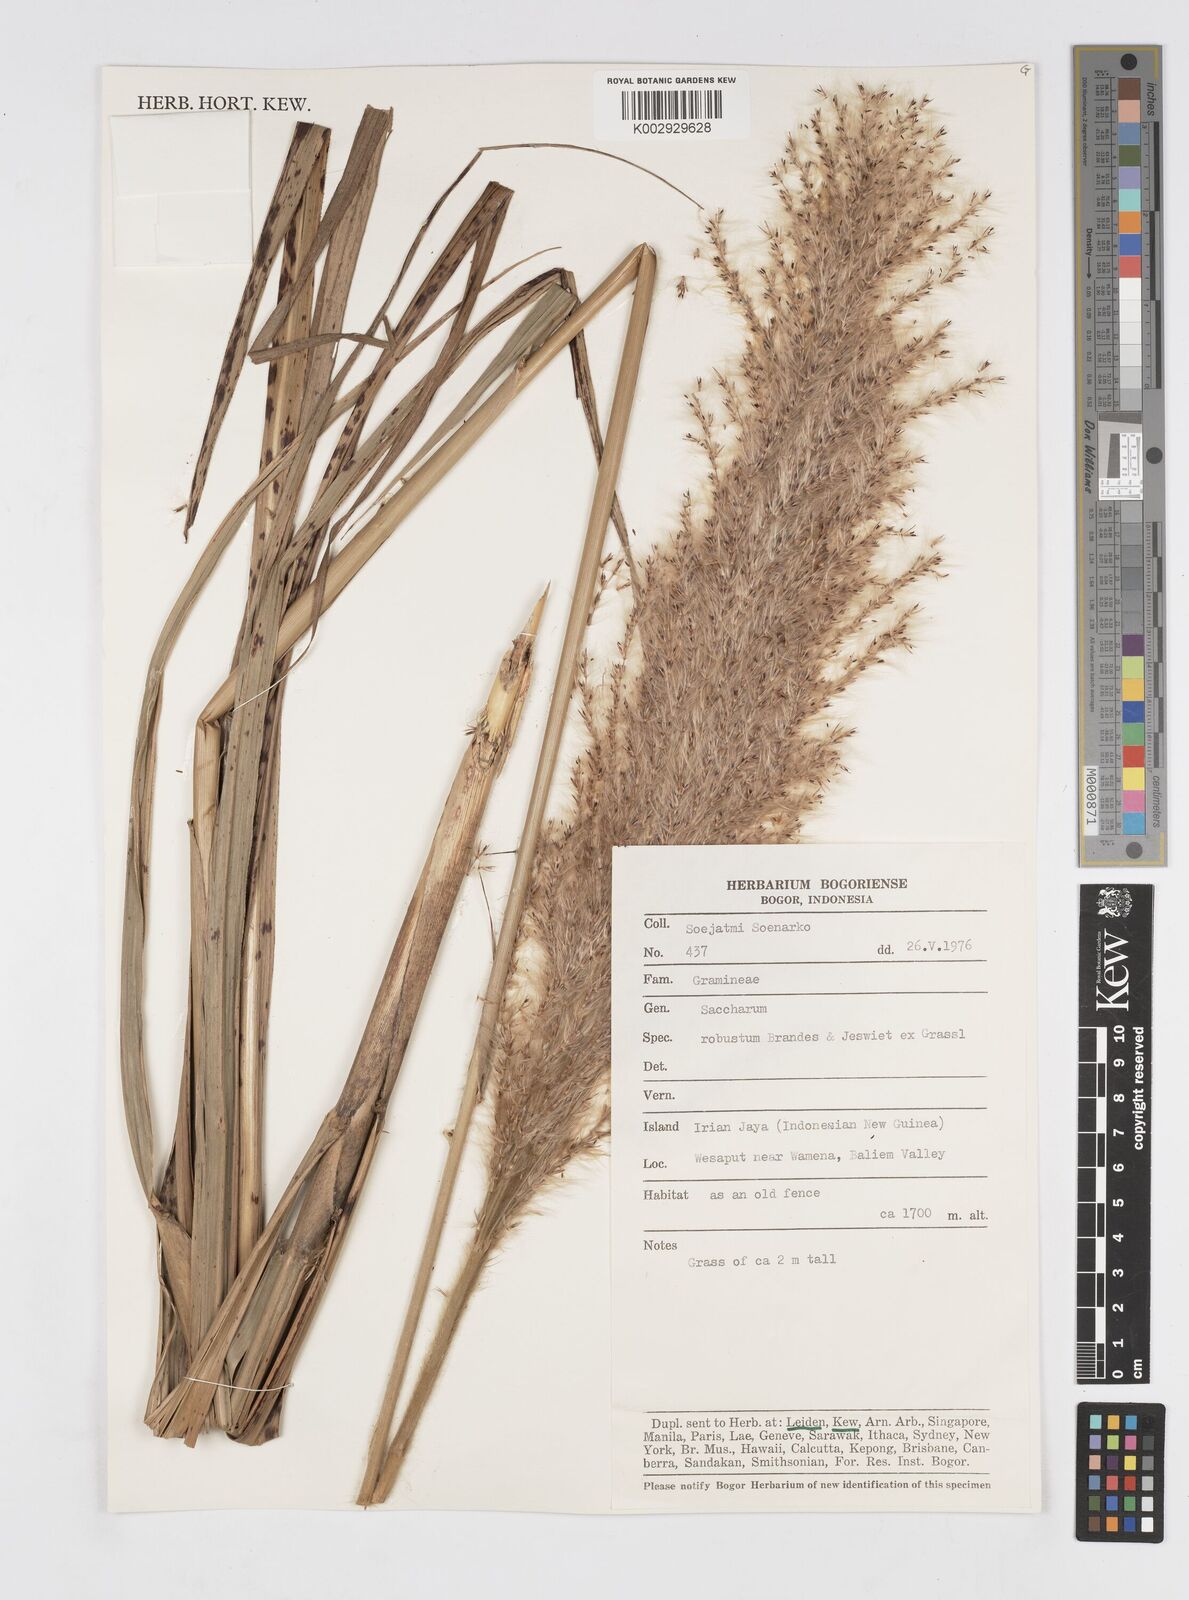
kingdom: Plantae
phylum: Tracheophyta
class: Liliopsida
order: Poales
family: Poaceae
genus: Saccharum
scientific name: Saccharum spontaneum
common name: Wild sugarcane
